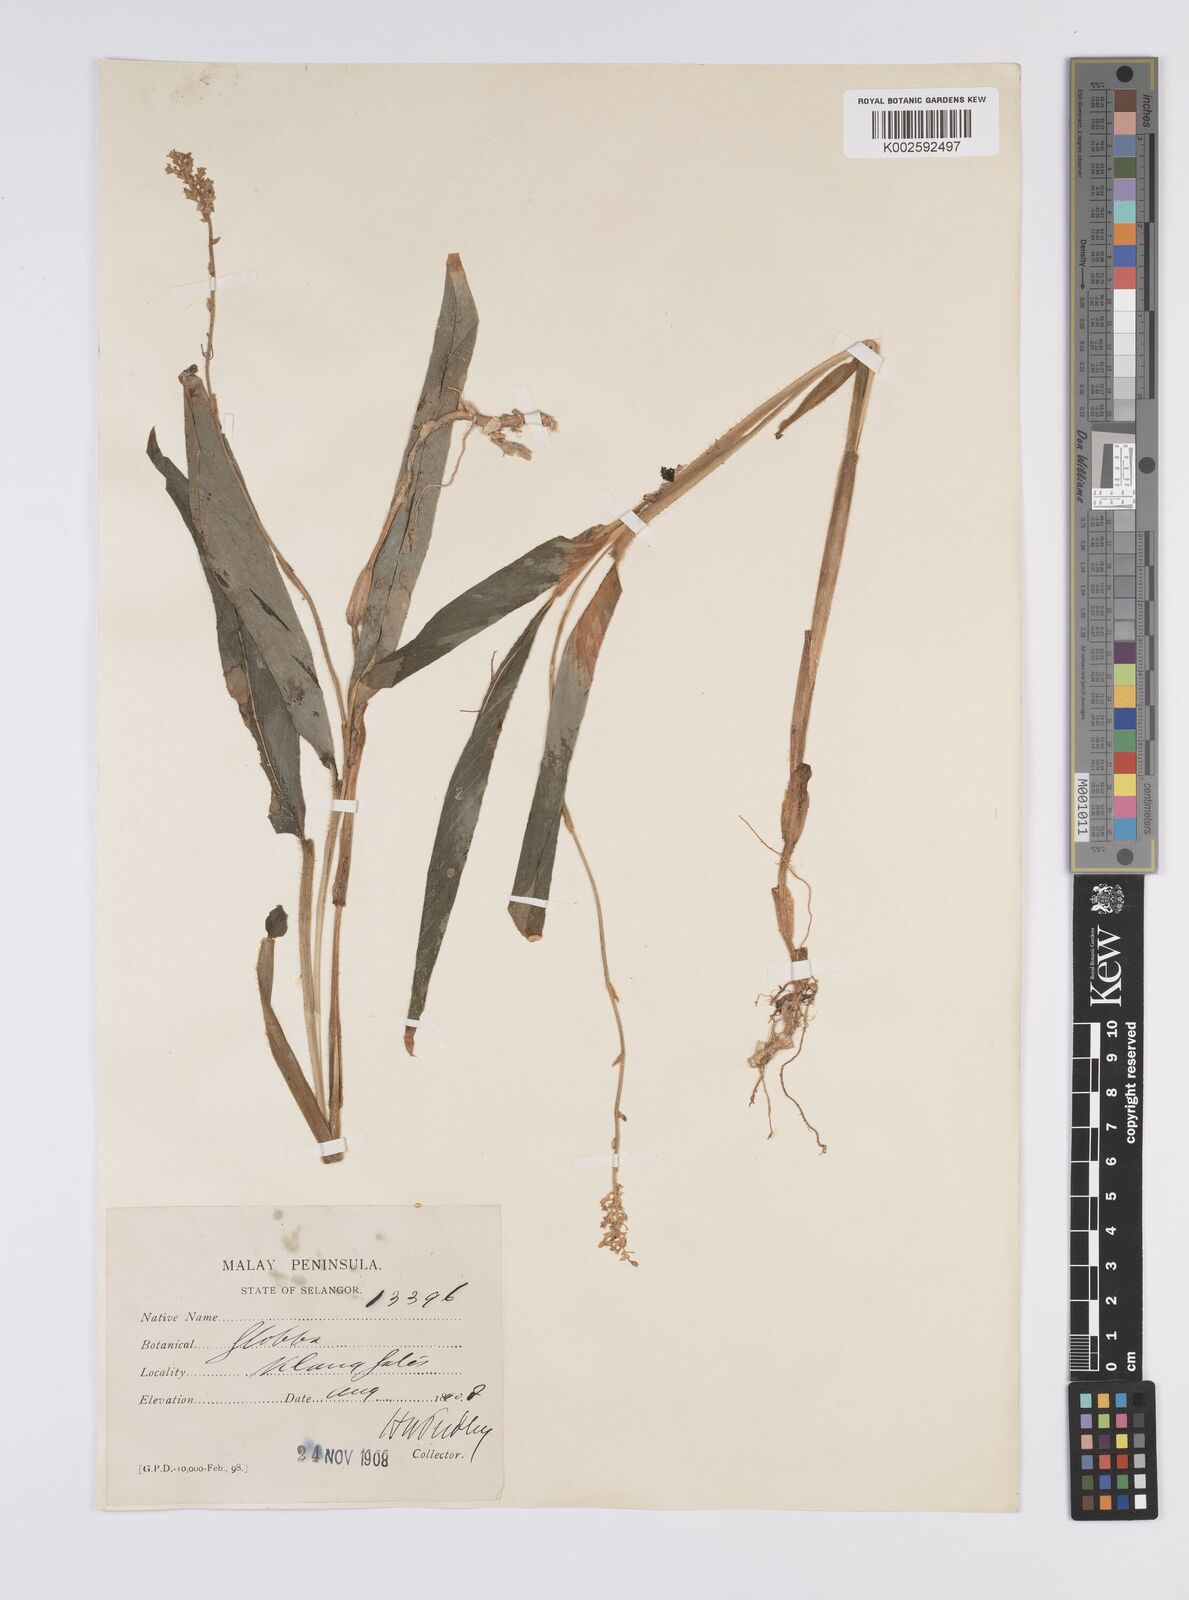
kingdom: Plantae
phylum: Tracheophyta
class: Liliopsida
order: Zingiberales
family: Zingiberaceae
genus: Globba
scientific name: Globba aurantiaca
